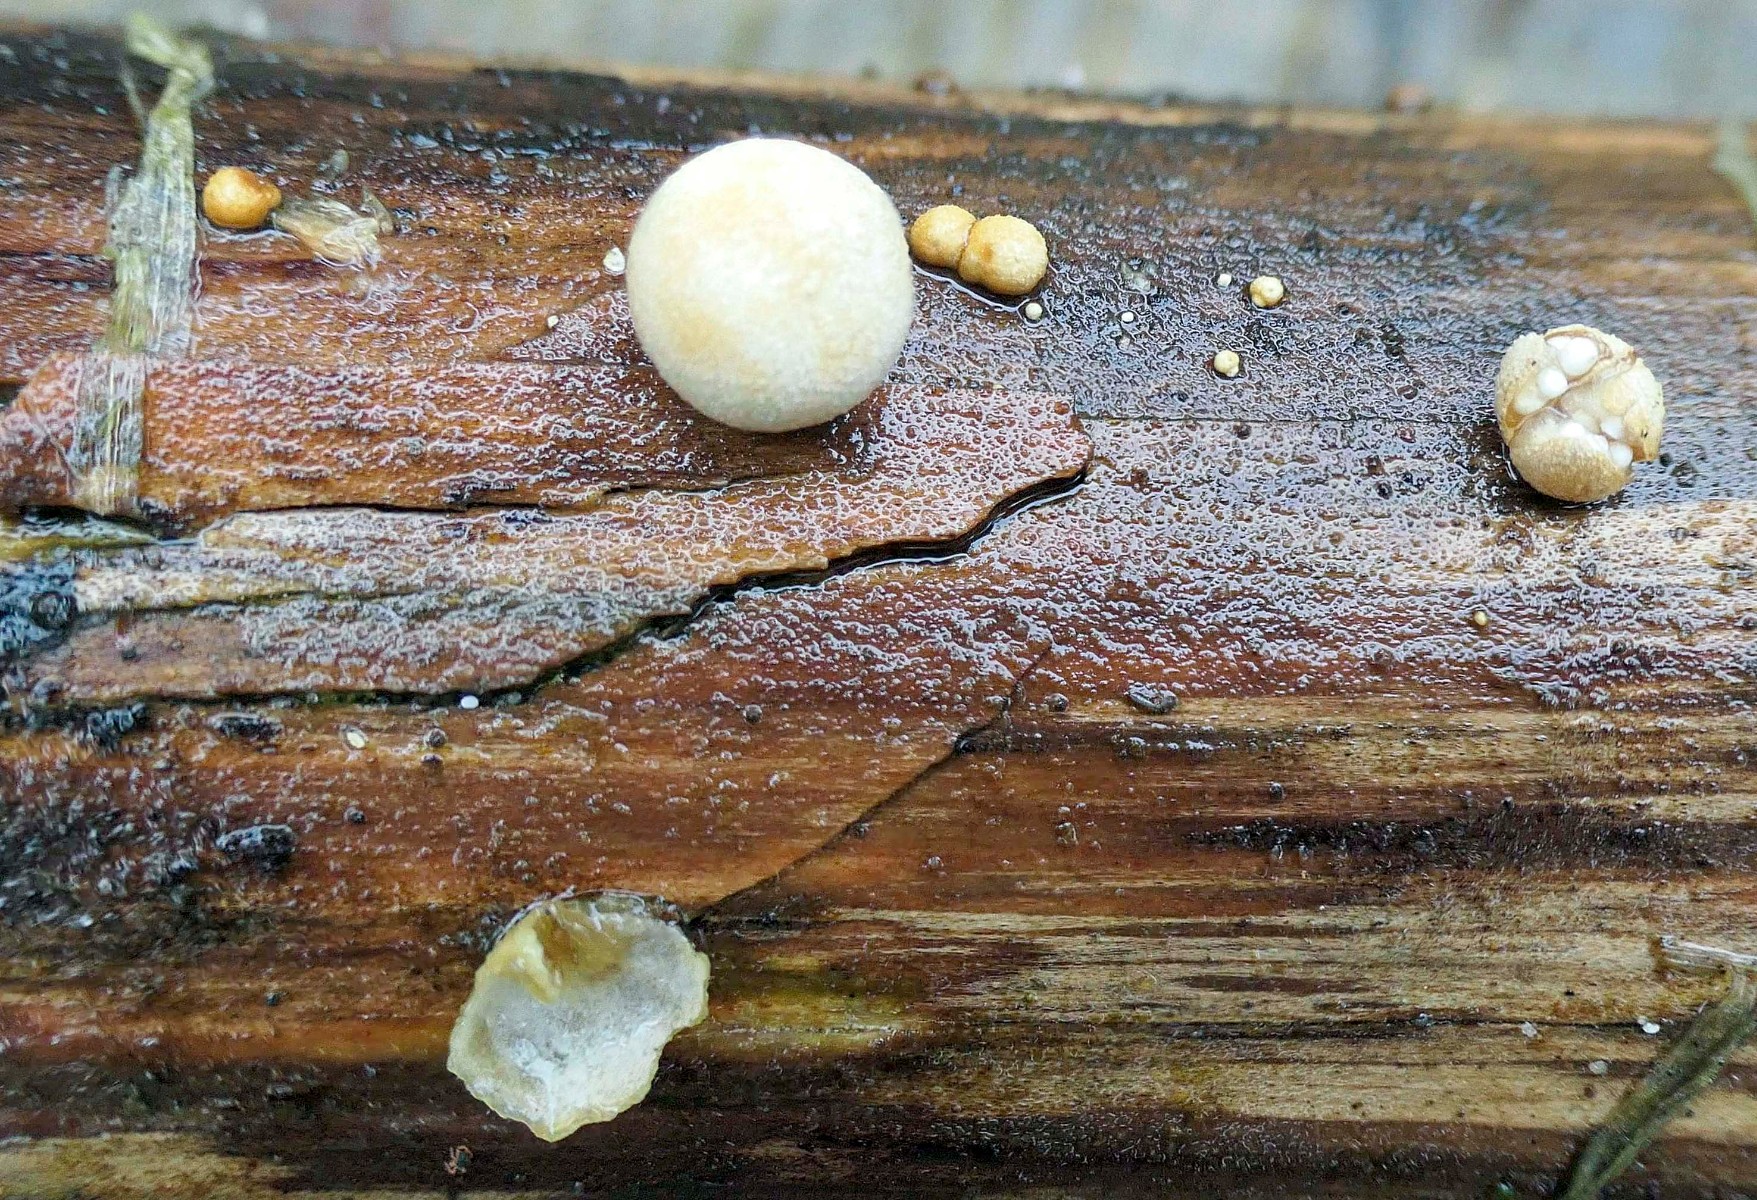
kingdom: Fungi
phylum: Basidiomycota
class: Agaricomycetes
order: Agaricales
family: Agaricaceae
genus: Nidularia
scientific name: Nidularia deformis
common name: pudesvamp
